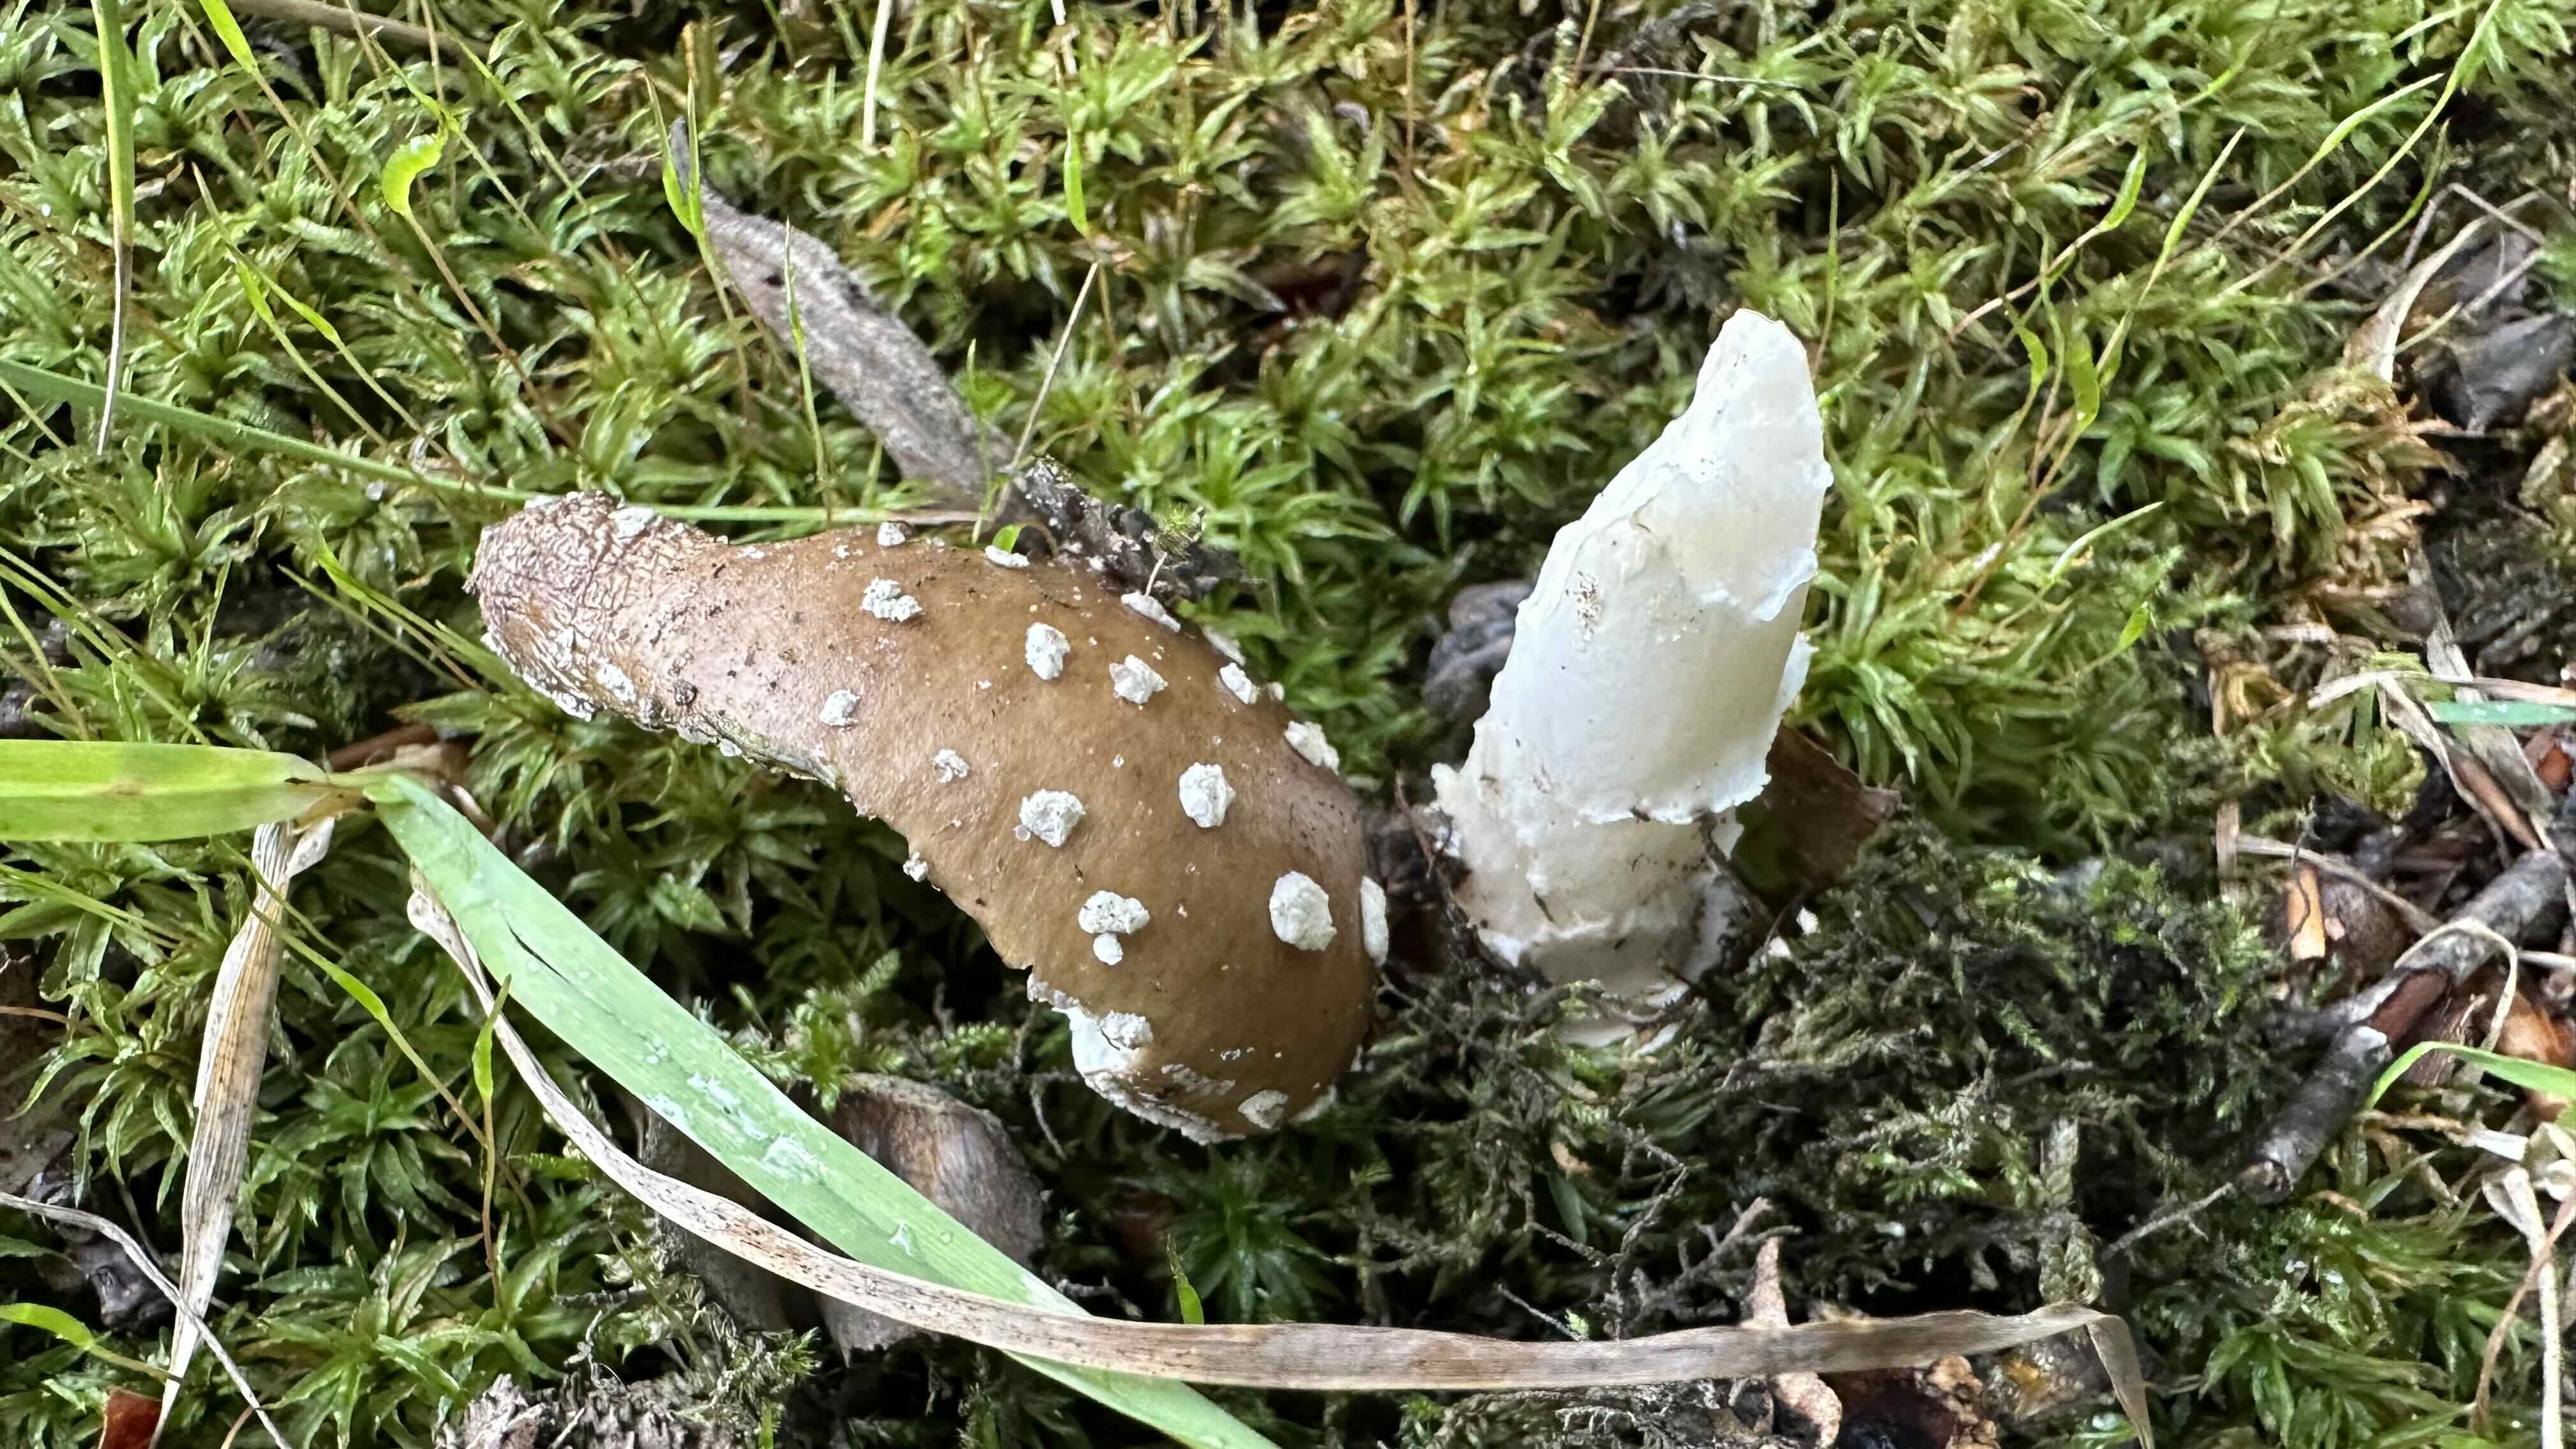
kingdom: Fungi
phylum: Basidiomycota
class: Agaricomycetes
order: Agaricales
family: Amanitaceae
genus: Amanita
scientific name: Amanita pantherina
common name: panter-fluesvamp
